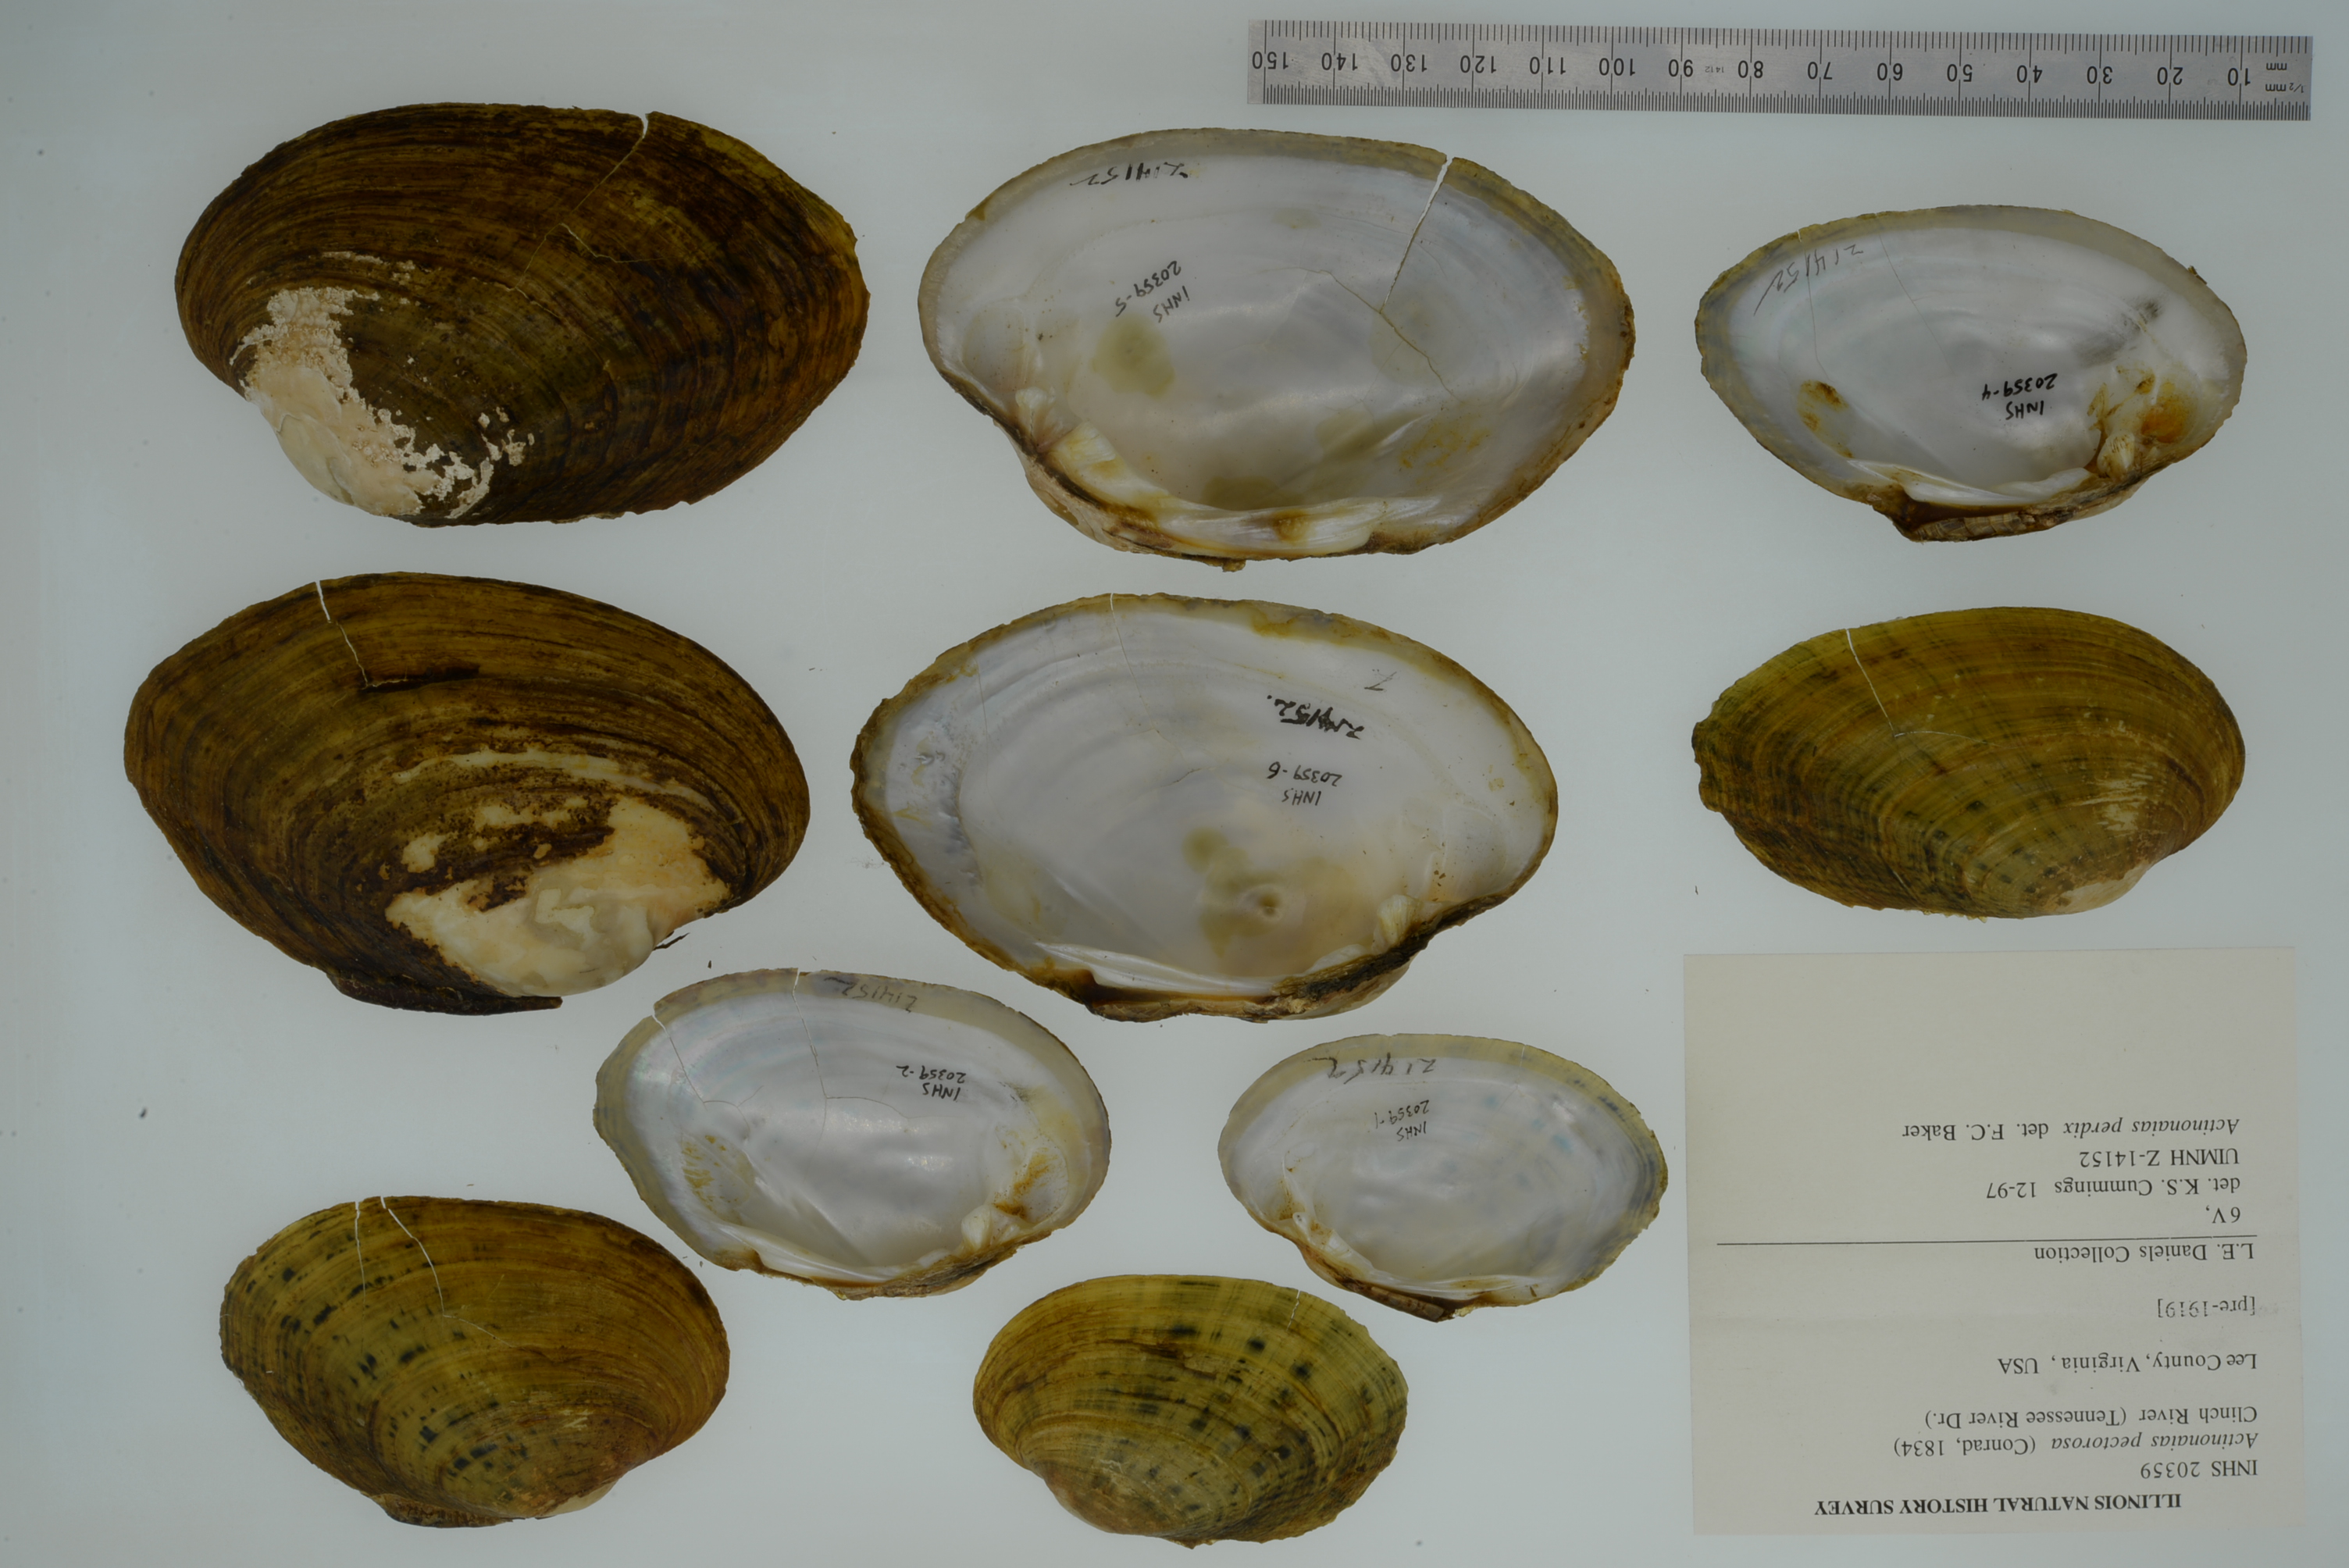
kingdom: Animalia
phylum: Mollusca
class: Bivalvia
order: Unionida
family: Unionidae
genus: Ortmanniana
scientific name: Ortmanniana pectorosa
